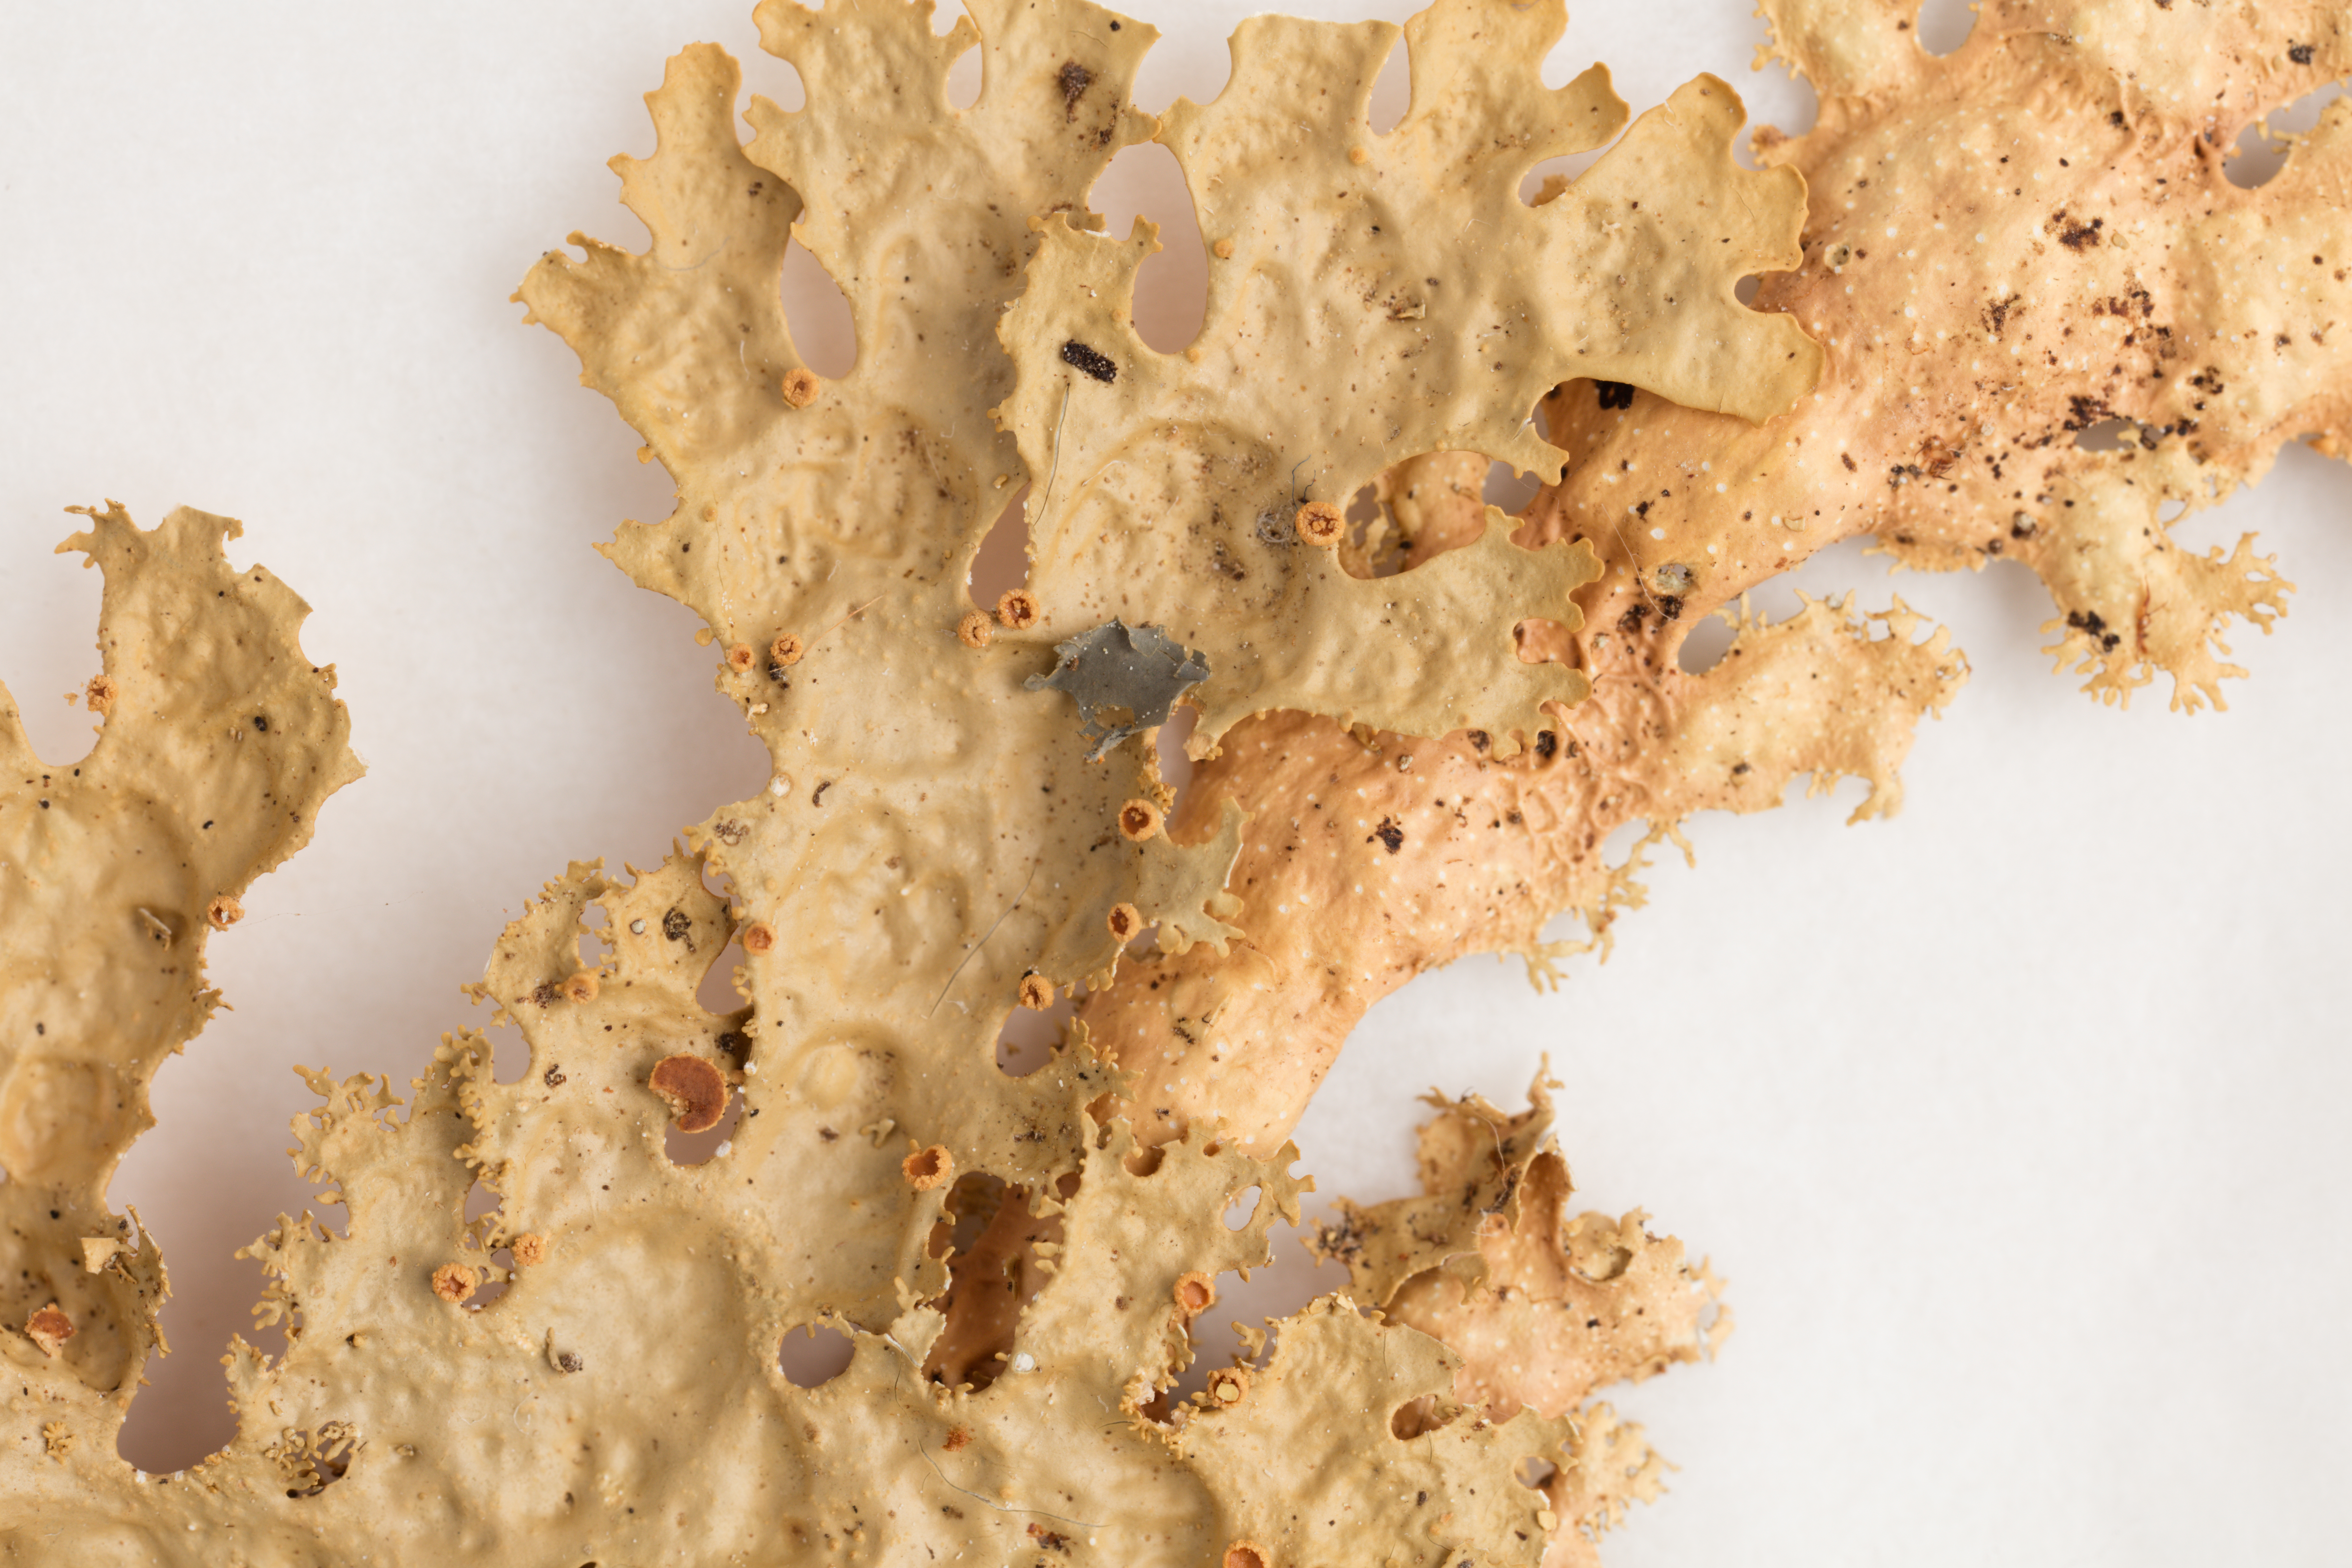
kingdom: Fungi
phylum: Ascomycota
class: Lecanoromycetes
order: Peltigerales
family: Lobariaceae
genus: Pseudocyphellaria
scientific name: Pseudocyphellaria chloroleuca
